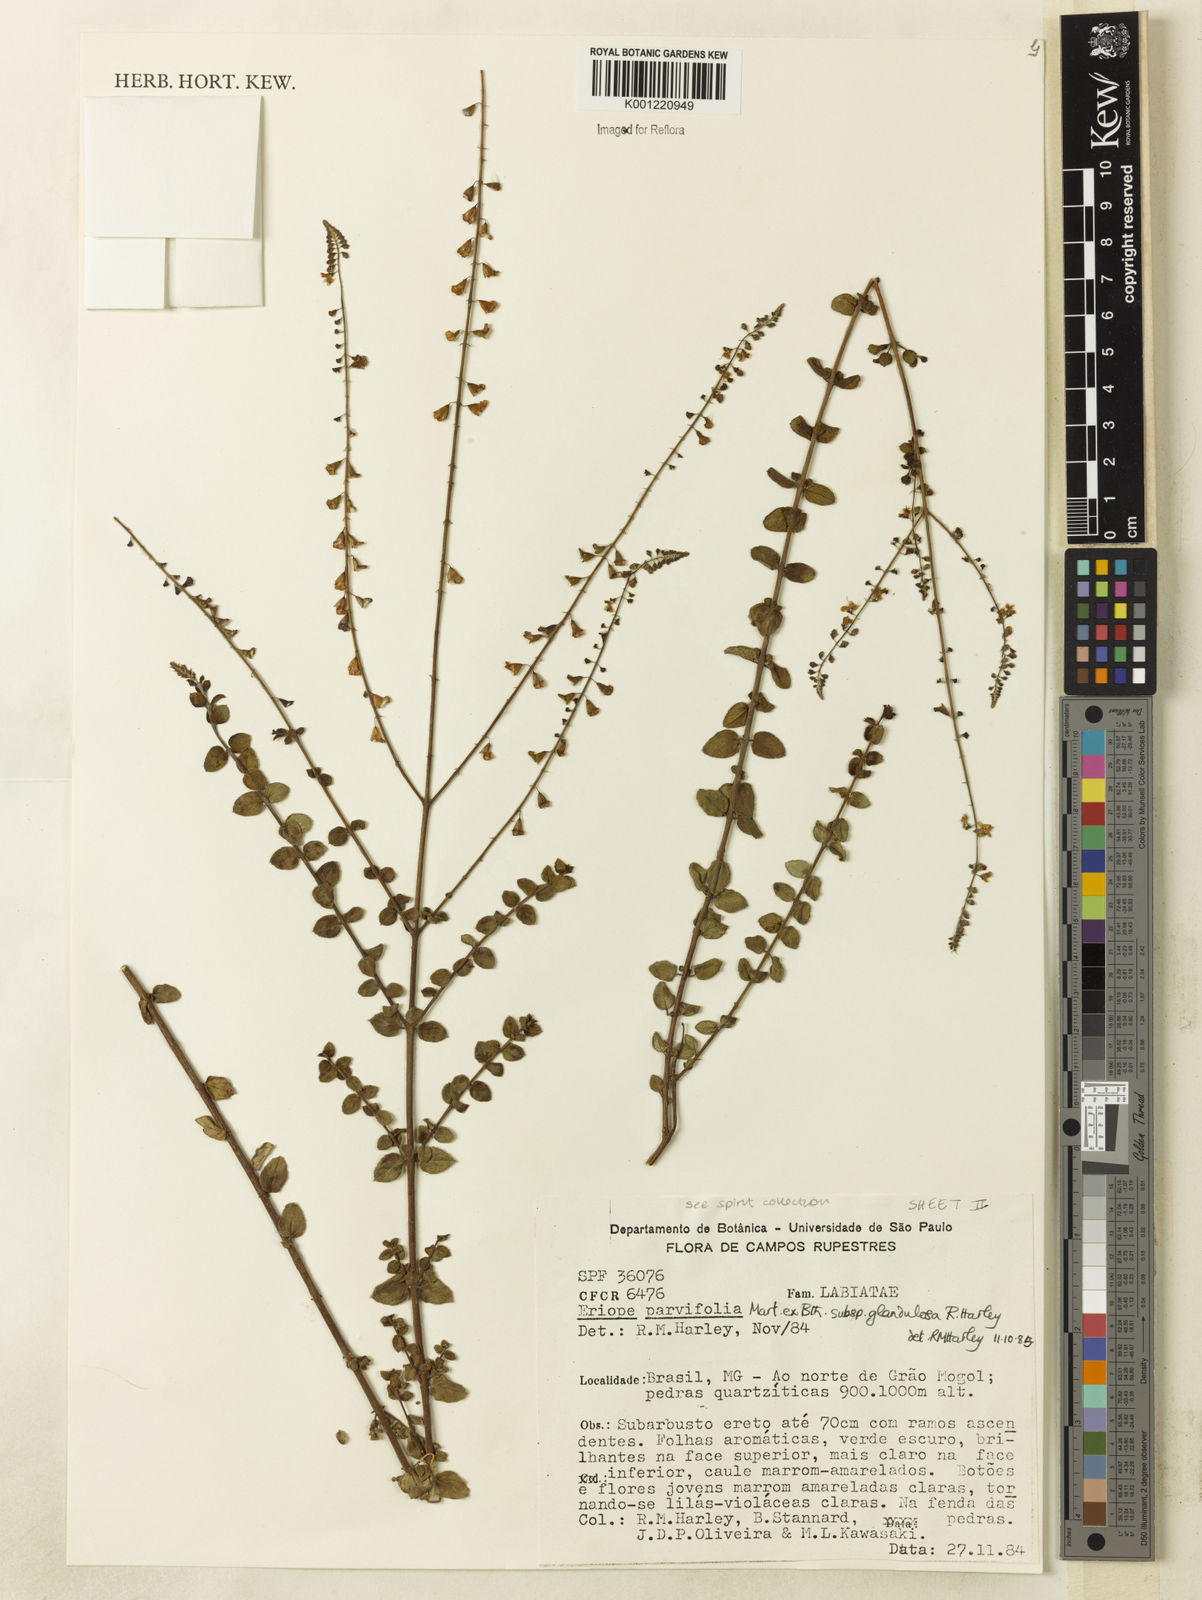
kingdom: Plantae
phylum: Tracheophyta
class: Magnoliopsida
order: Lamiales
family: Lamiaceae
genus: Eriope
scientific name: Eriope glandulosa
